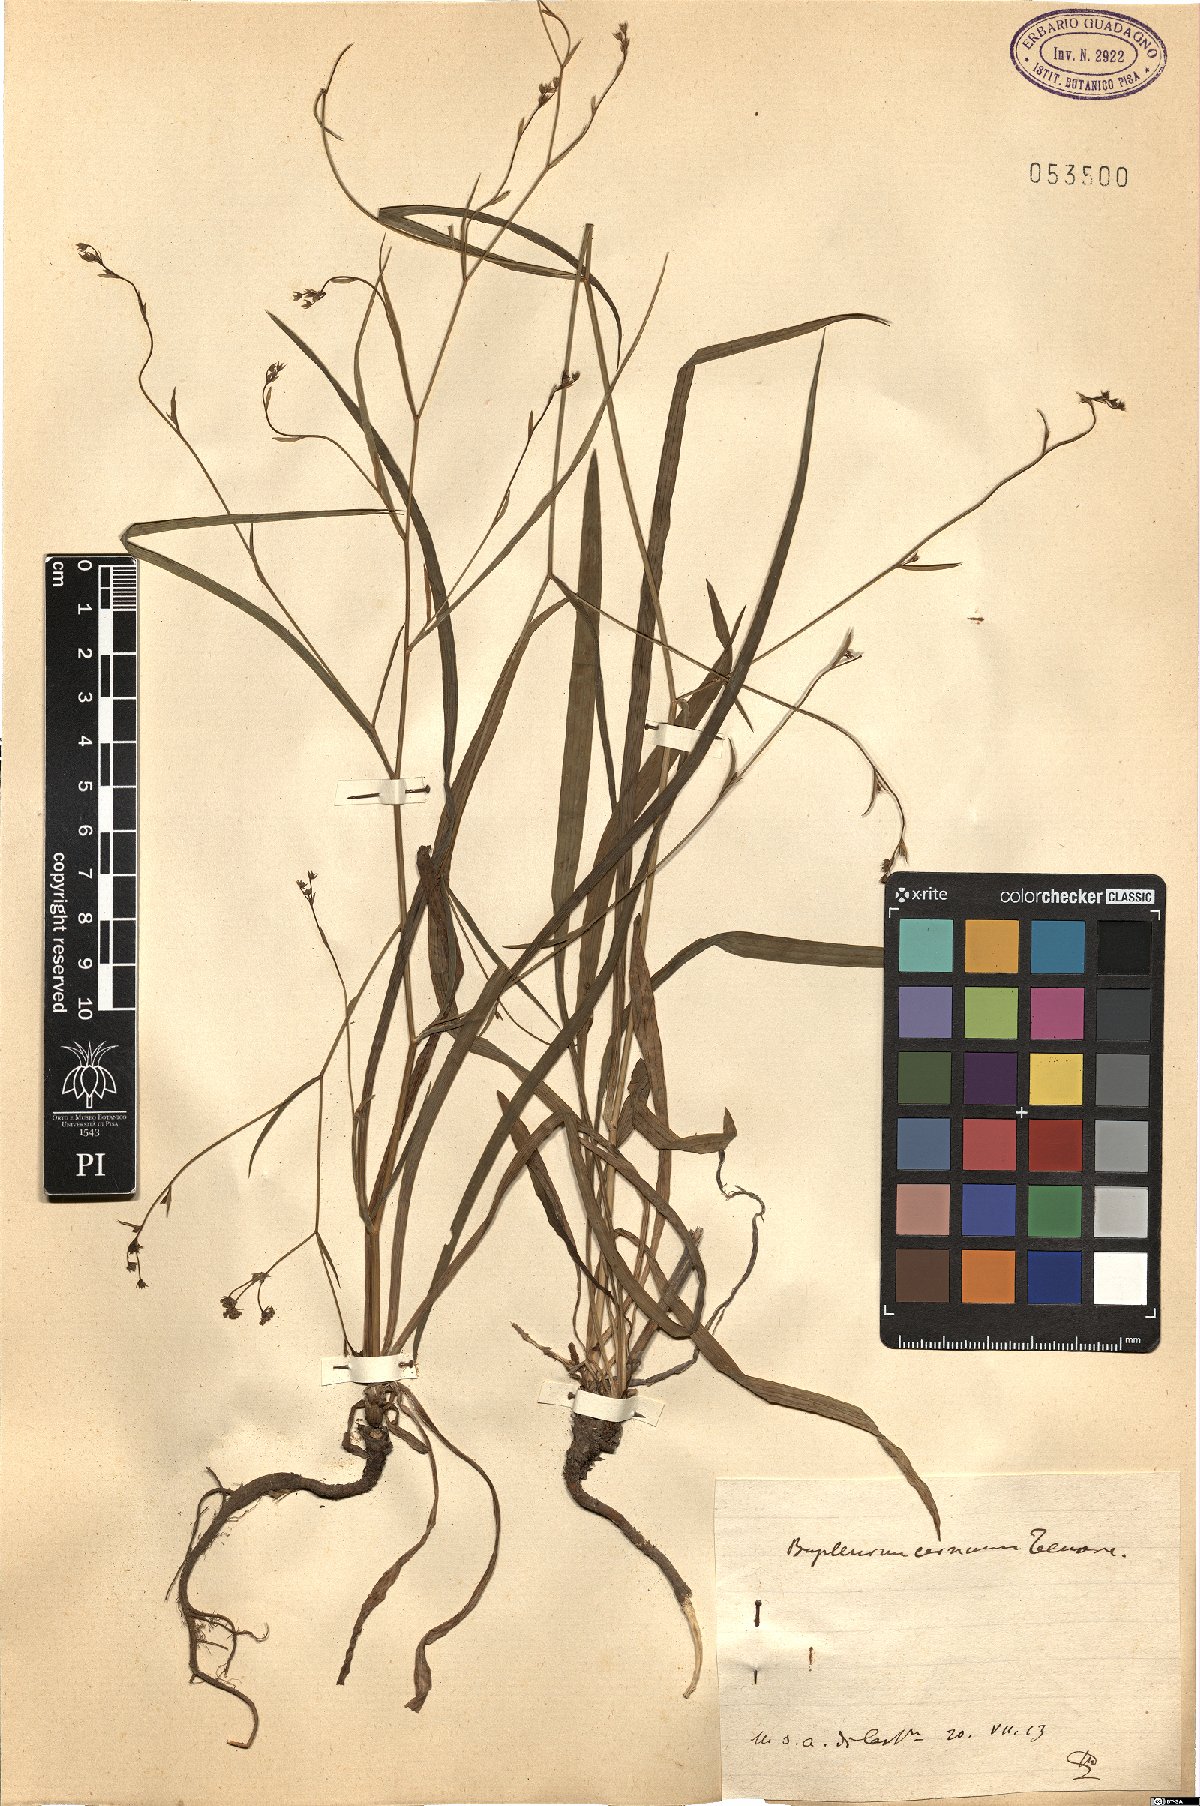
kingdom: Plantae
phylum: Tracheophyta
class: Magnoliopsida
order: Apiales
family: Apiaceae
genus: Bupleurum
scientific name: Bupleurum exaltatum
